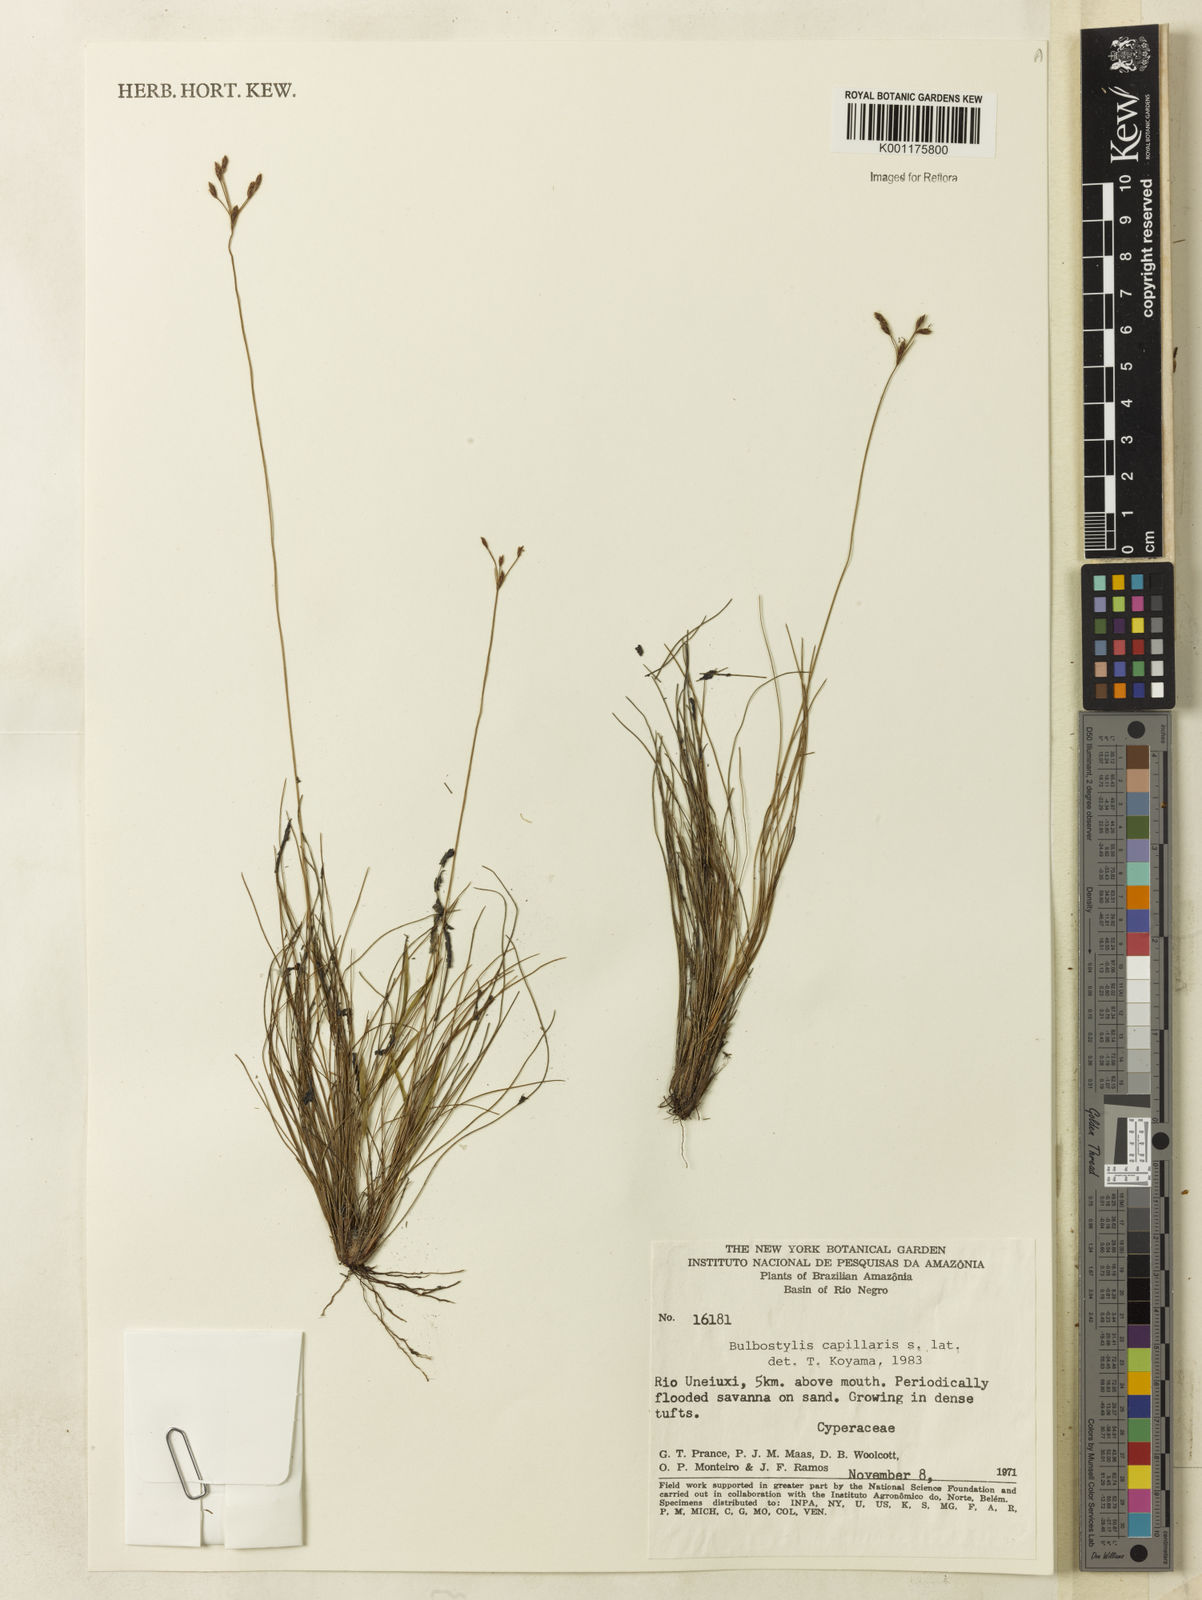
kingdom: Plantae
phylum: Tracheophyta
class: Liliopsida
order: Poales
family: Cyperaceae
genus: Bulbostylis
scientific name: Bulbostylis capillaris
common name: Densetuft hairsedge
